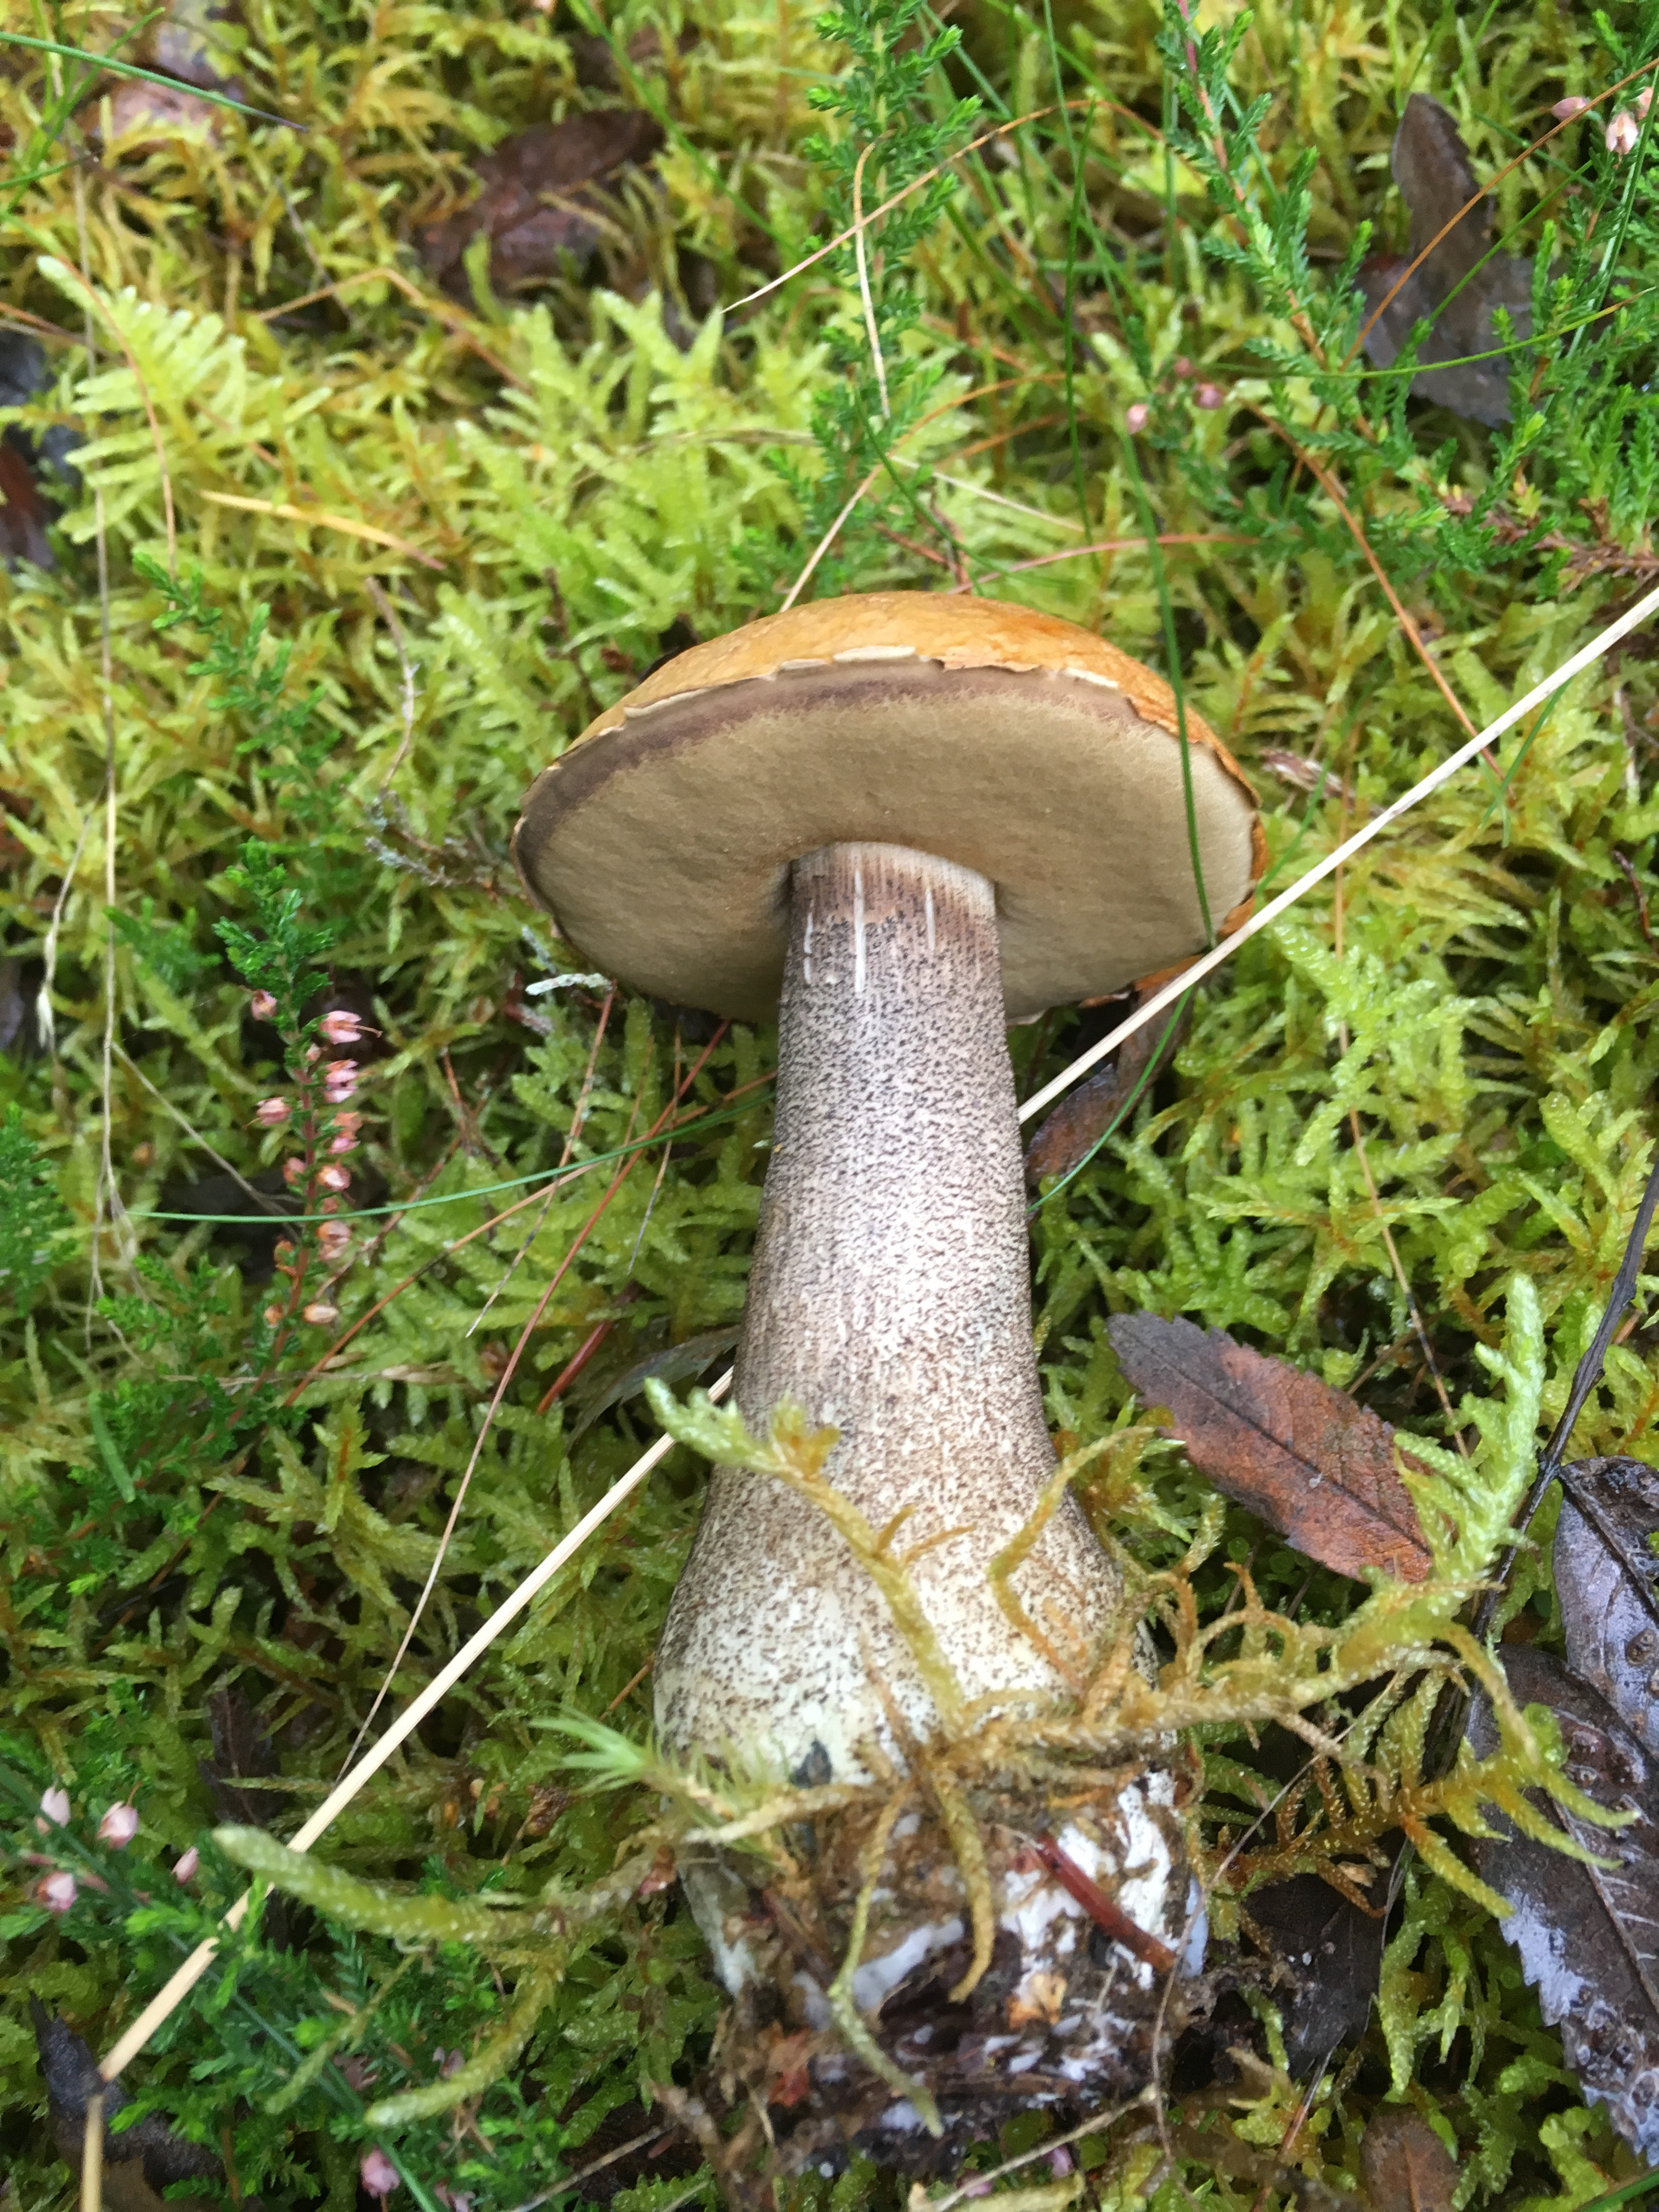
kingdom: Fungi
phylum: Basidiomycota
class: Agaricomycetes
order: Boletales
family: Boletaceae
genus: Leccinum
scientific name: Leccinum versipelle
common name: orange skælrørhat
